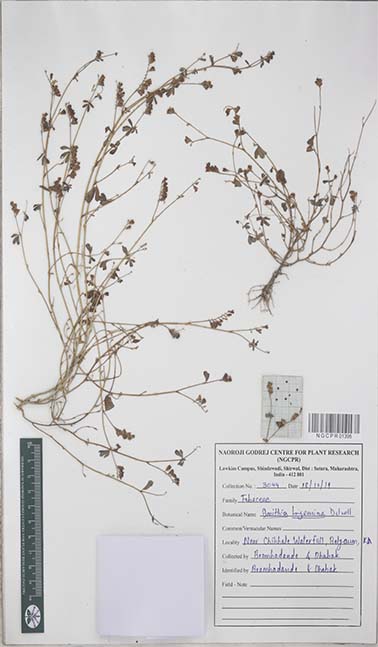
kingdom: Plantae
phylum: Tracheophyta
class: Magnoliopsida
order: Fabales
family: Fabaceae
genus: Smithia
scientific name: Smithia bigemina
